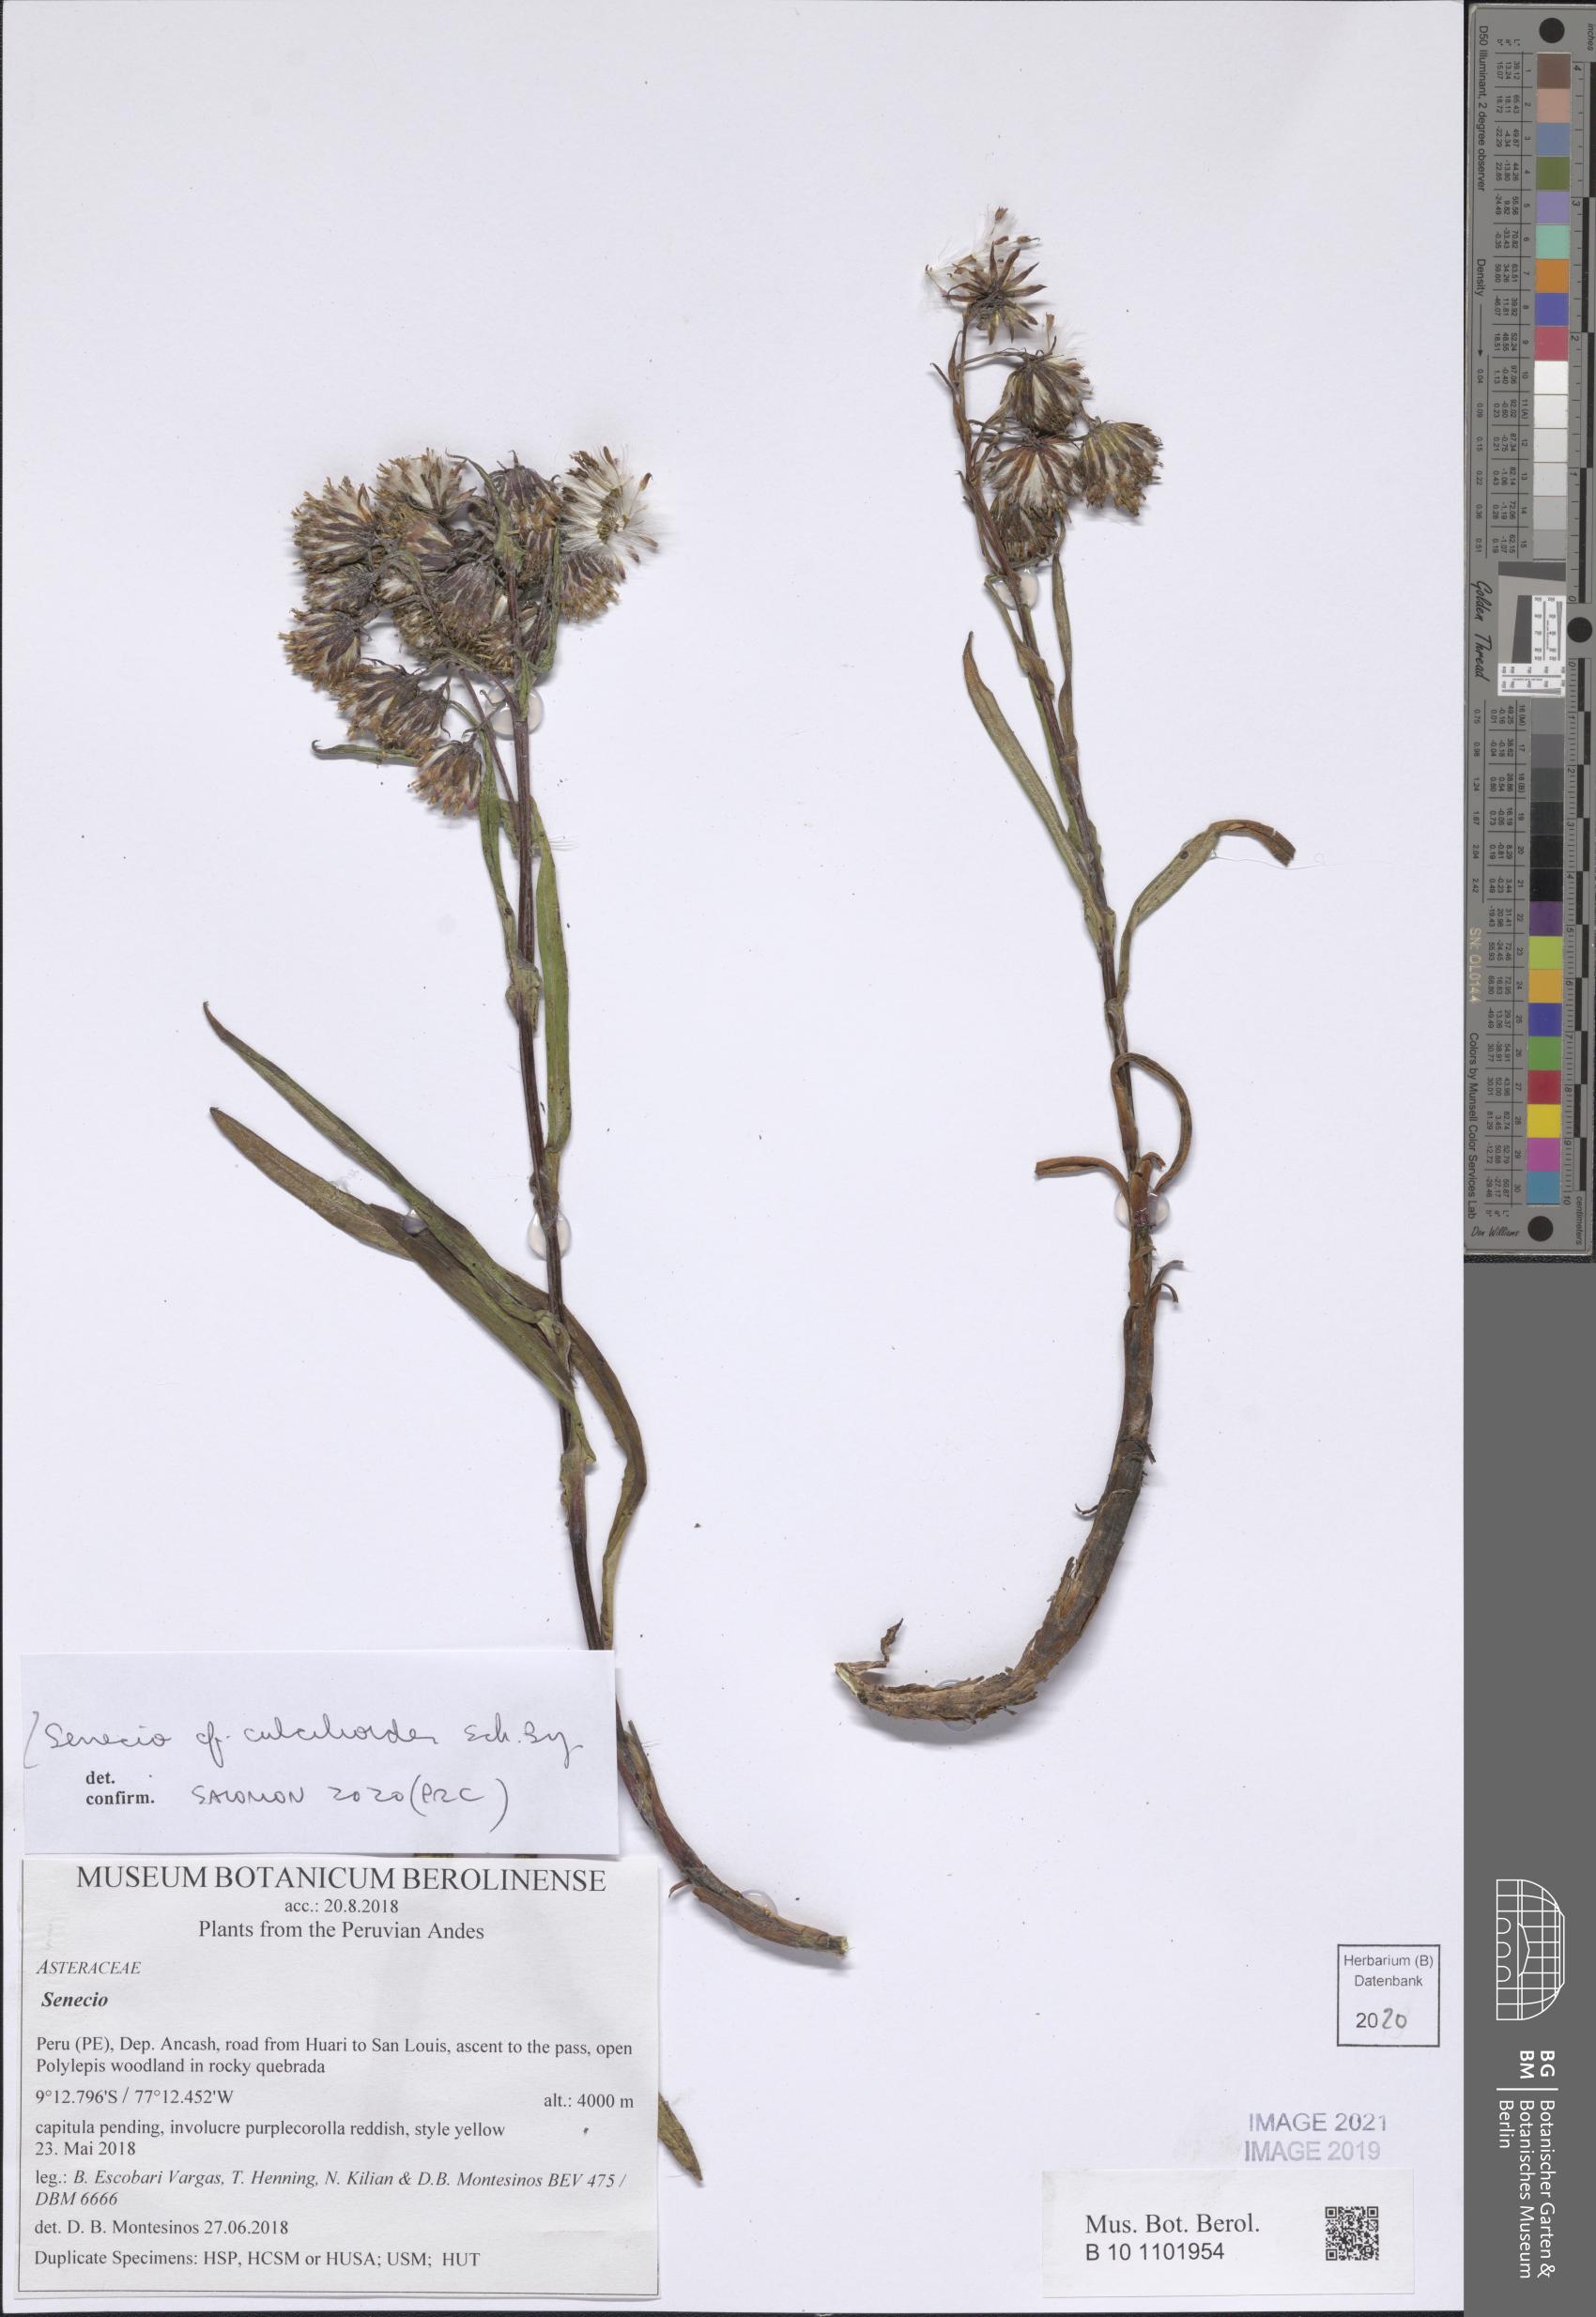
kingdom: Plantae
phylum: Tracheophyta
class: Magnoliopsida
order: Asterales
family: Asteraceae
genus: Senecio
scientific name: Senecio comosus
